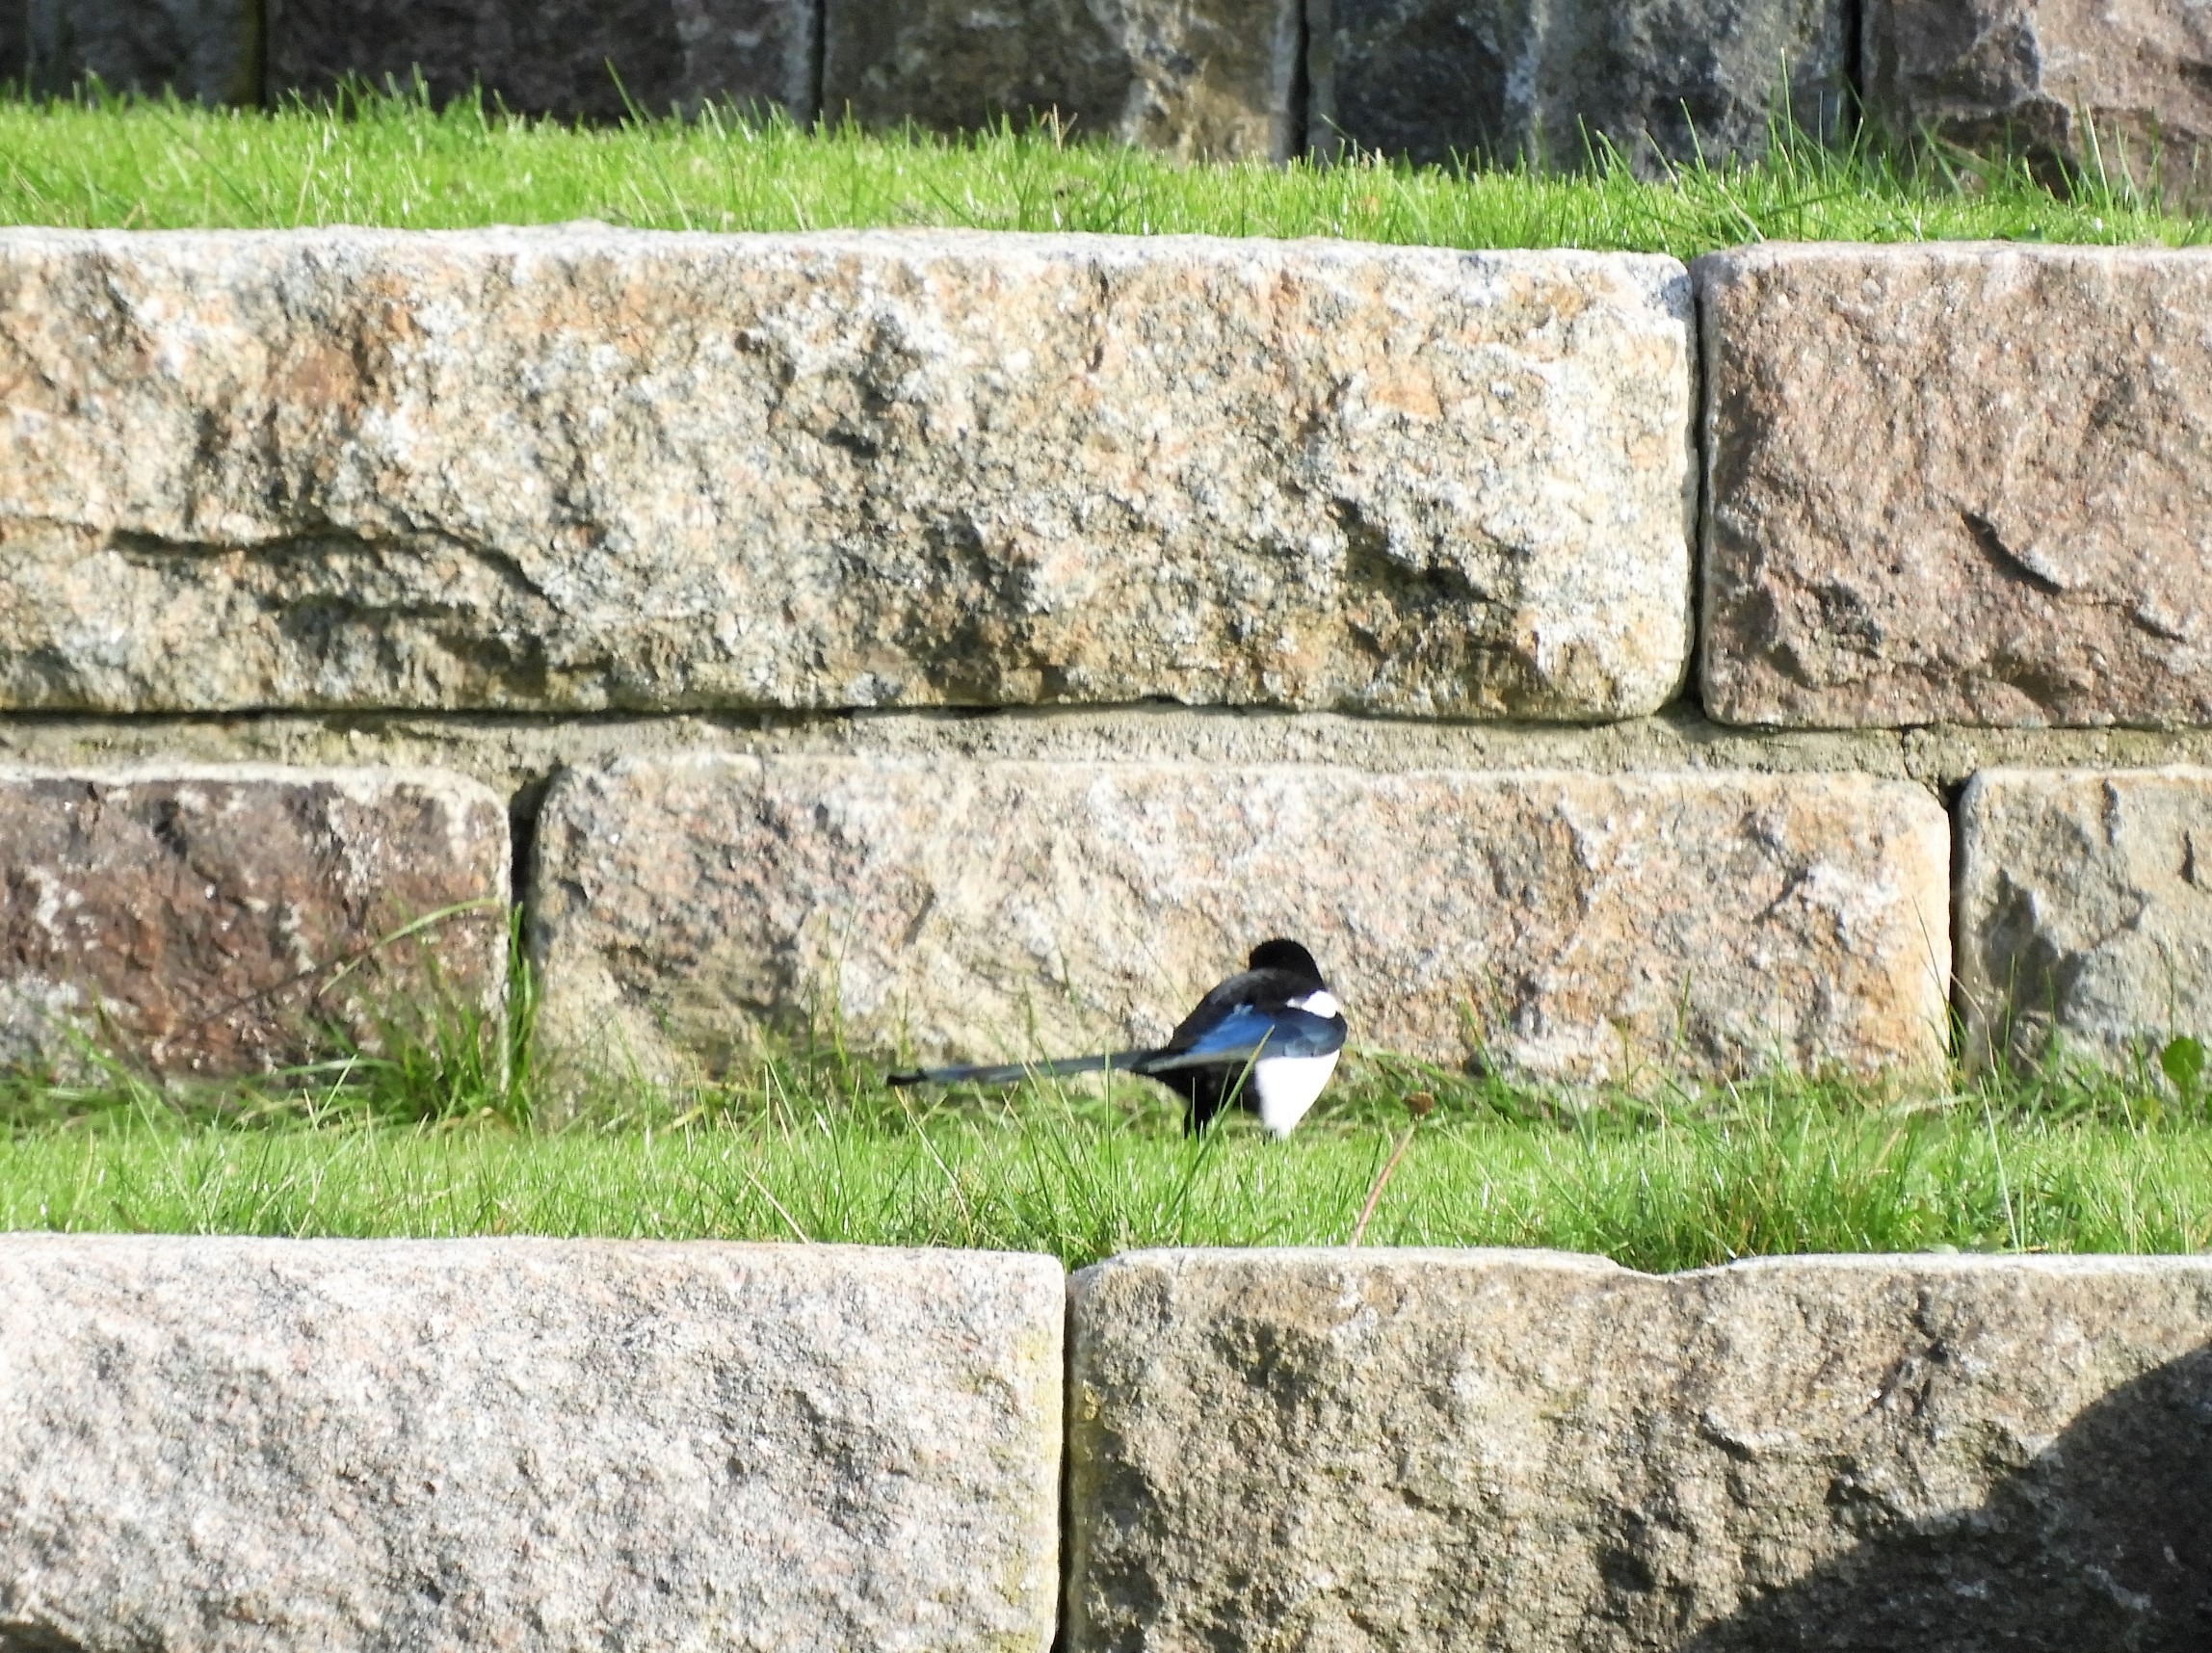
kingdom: Animalia
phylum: Chordata
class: Aves
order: Passeriformes
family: Corvidae
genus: Pica
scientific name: Pica pica
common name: Husskade
